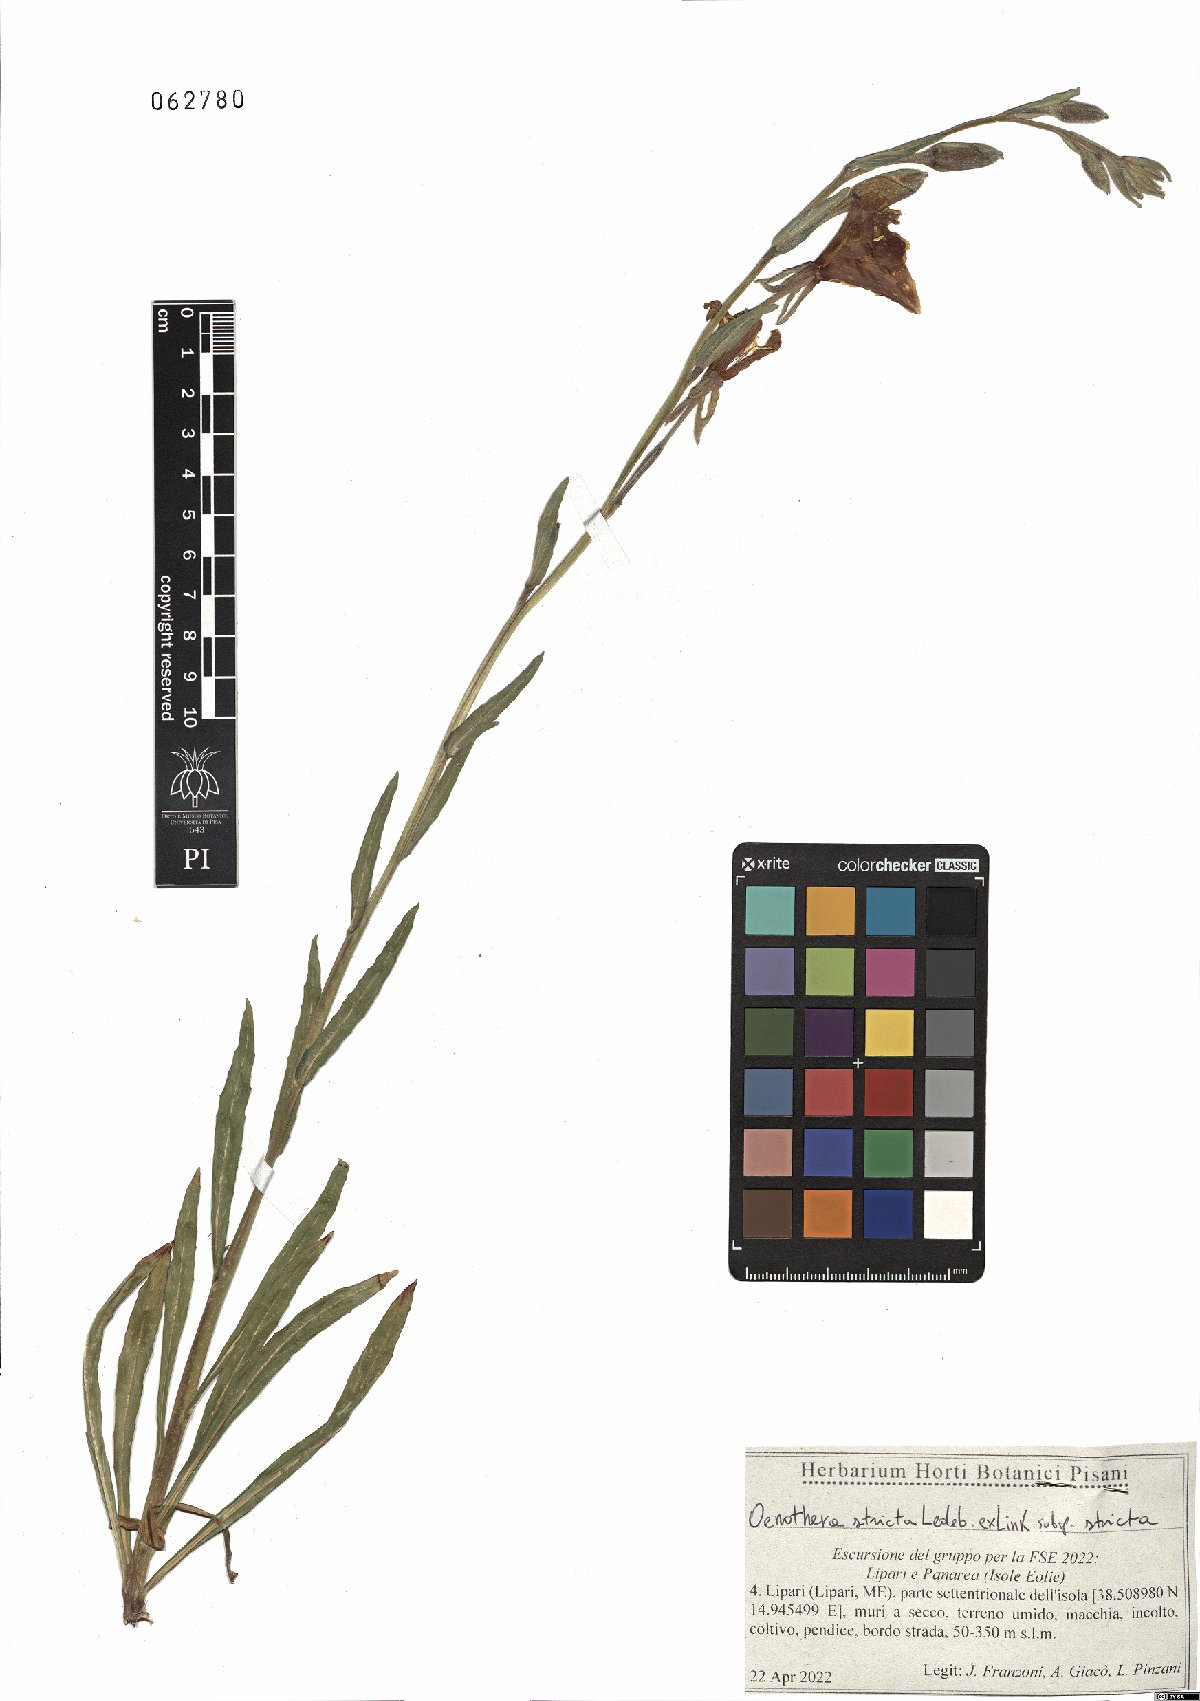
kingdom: Plantae
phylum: Tracheophyta
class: Magnoliopsida
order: Myrtales
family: Onagraceae
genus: Oenothera
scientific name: Oenothera stricta
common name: Fragrant evening-primrose
